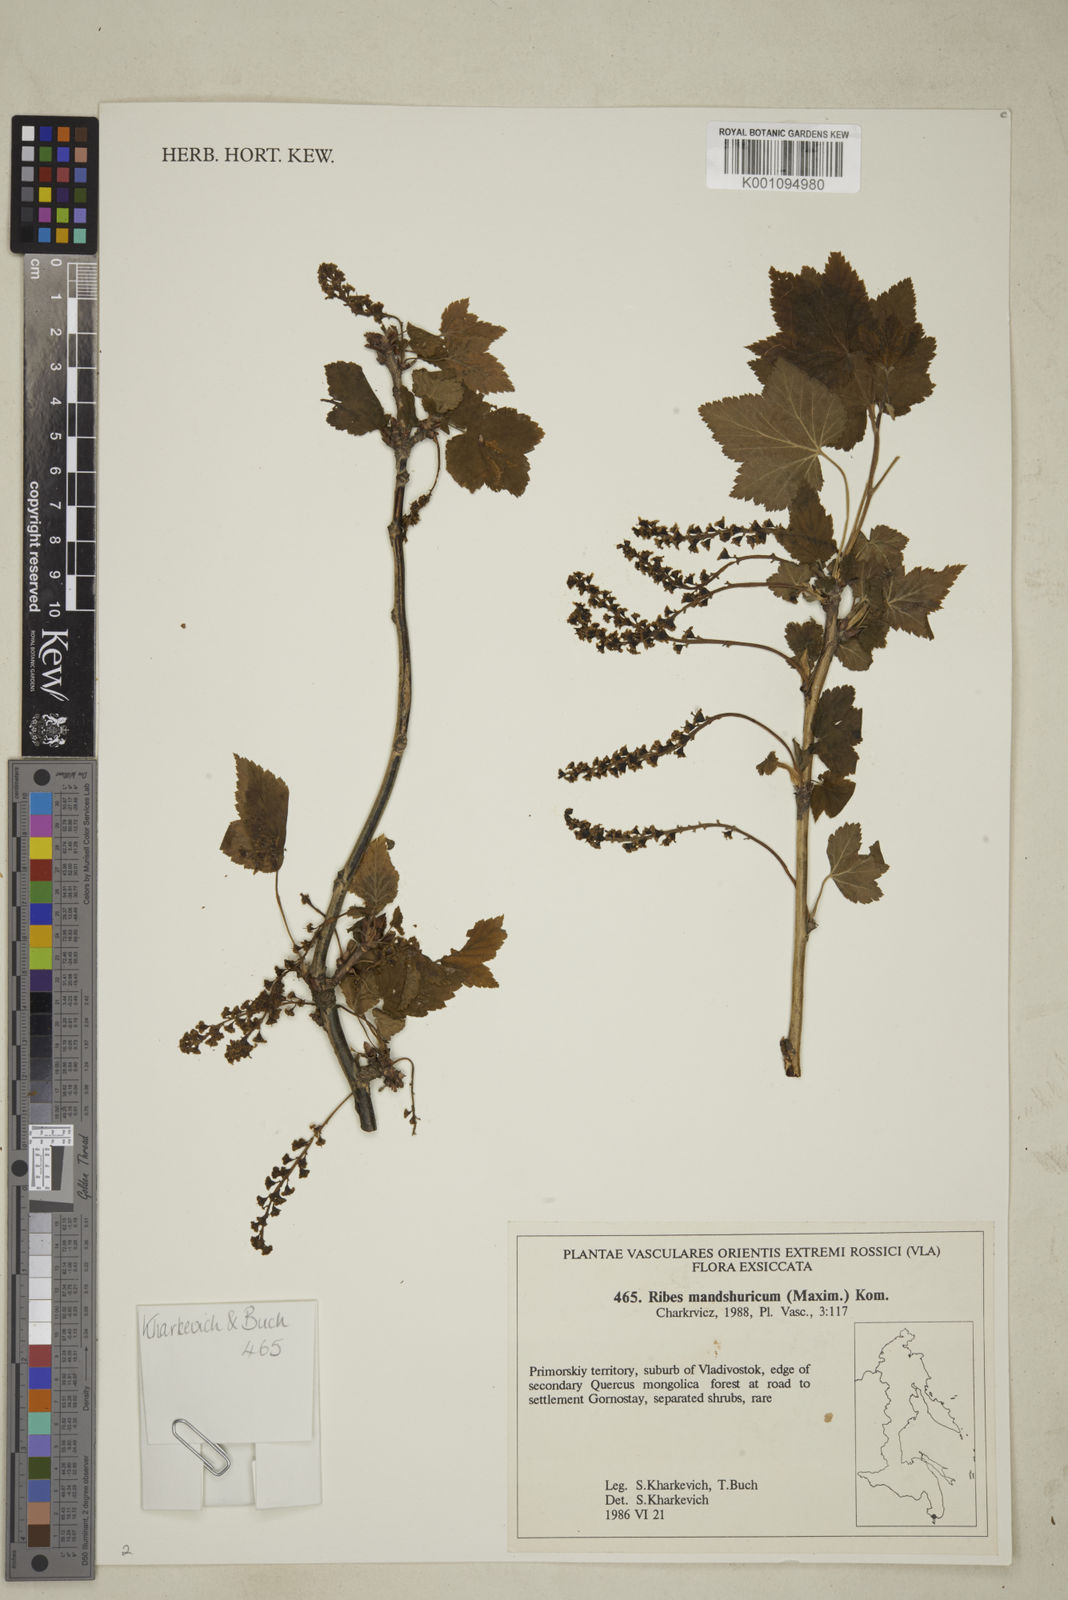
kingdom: Plantae
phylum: Tracheophyta
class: Magnoliopsida
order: Saxifragales
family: Grossulariaceae
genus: Ribes
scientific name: Ribes
